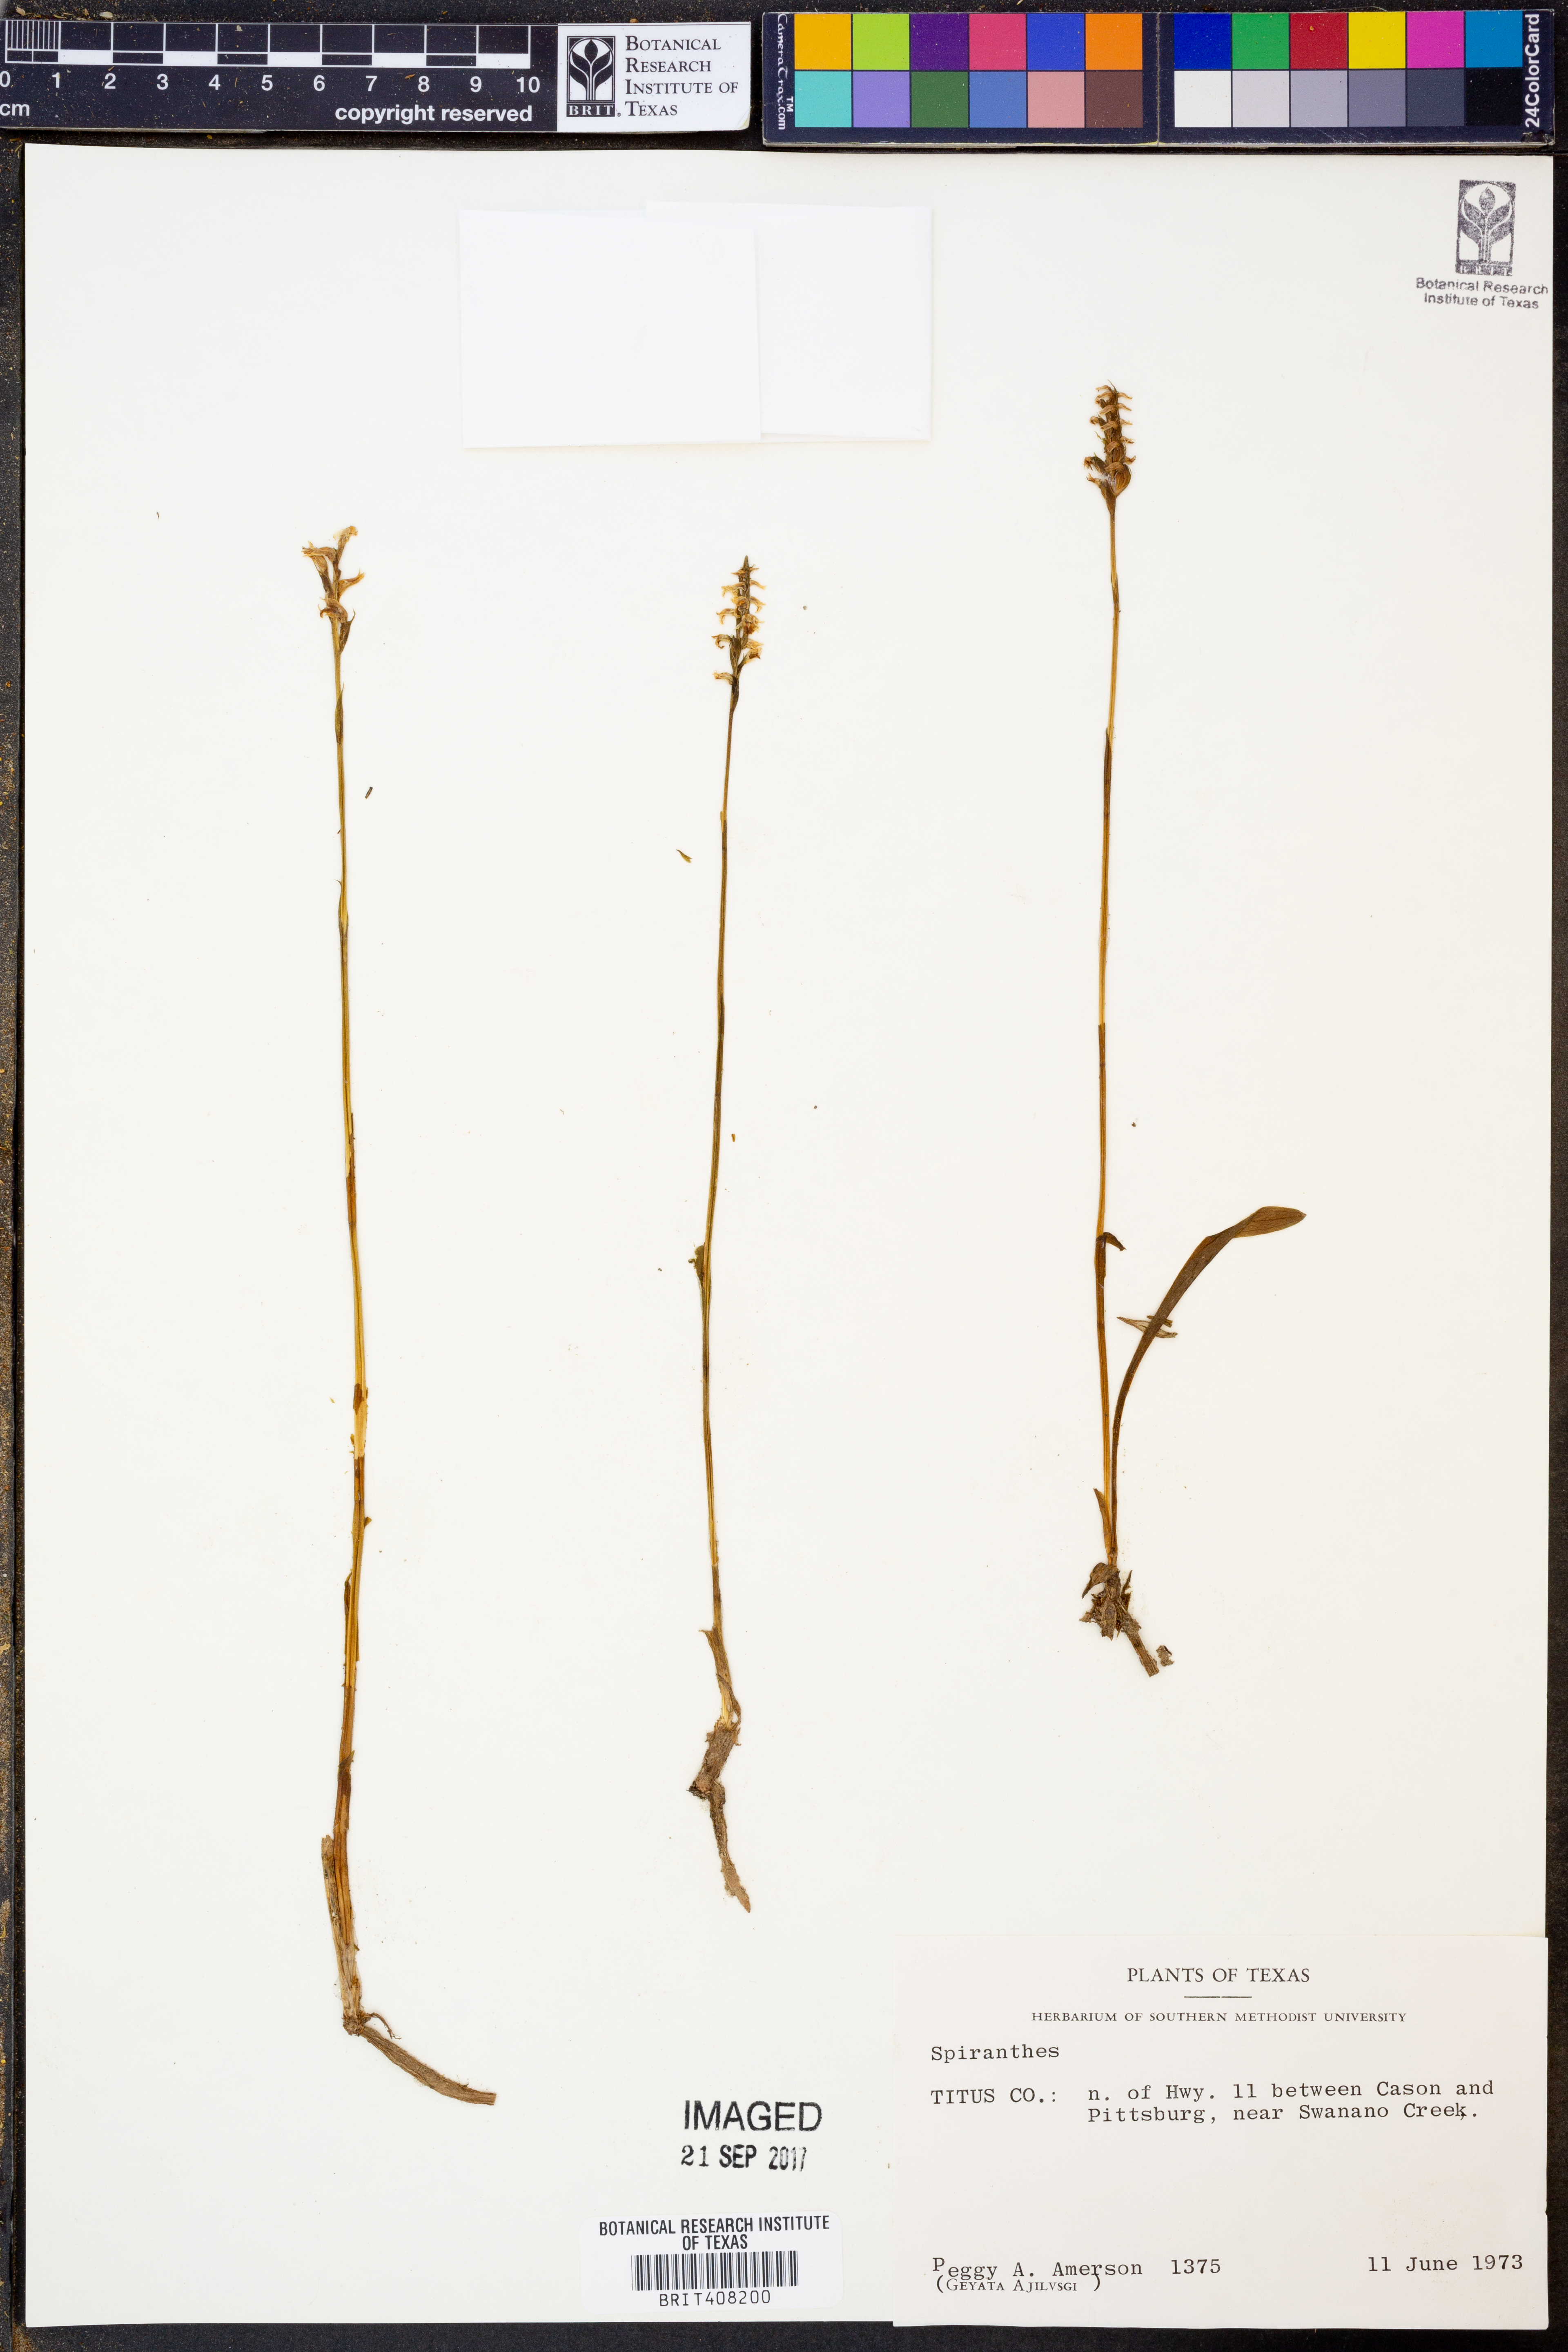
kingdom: Plantae
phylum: Tracheophyta
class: Liliopsida
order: Asparagales
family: Orchidaceae
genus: Spiranthes
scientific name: Spiranthes
